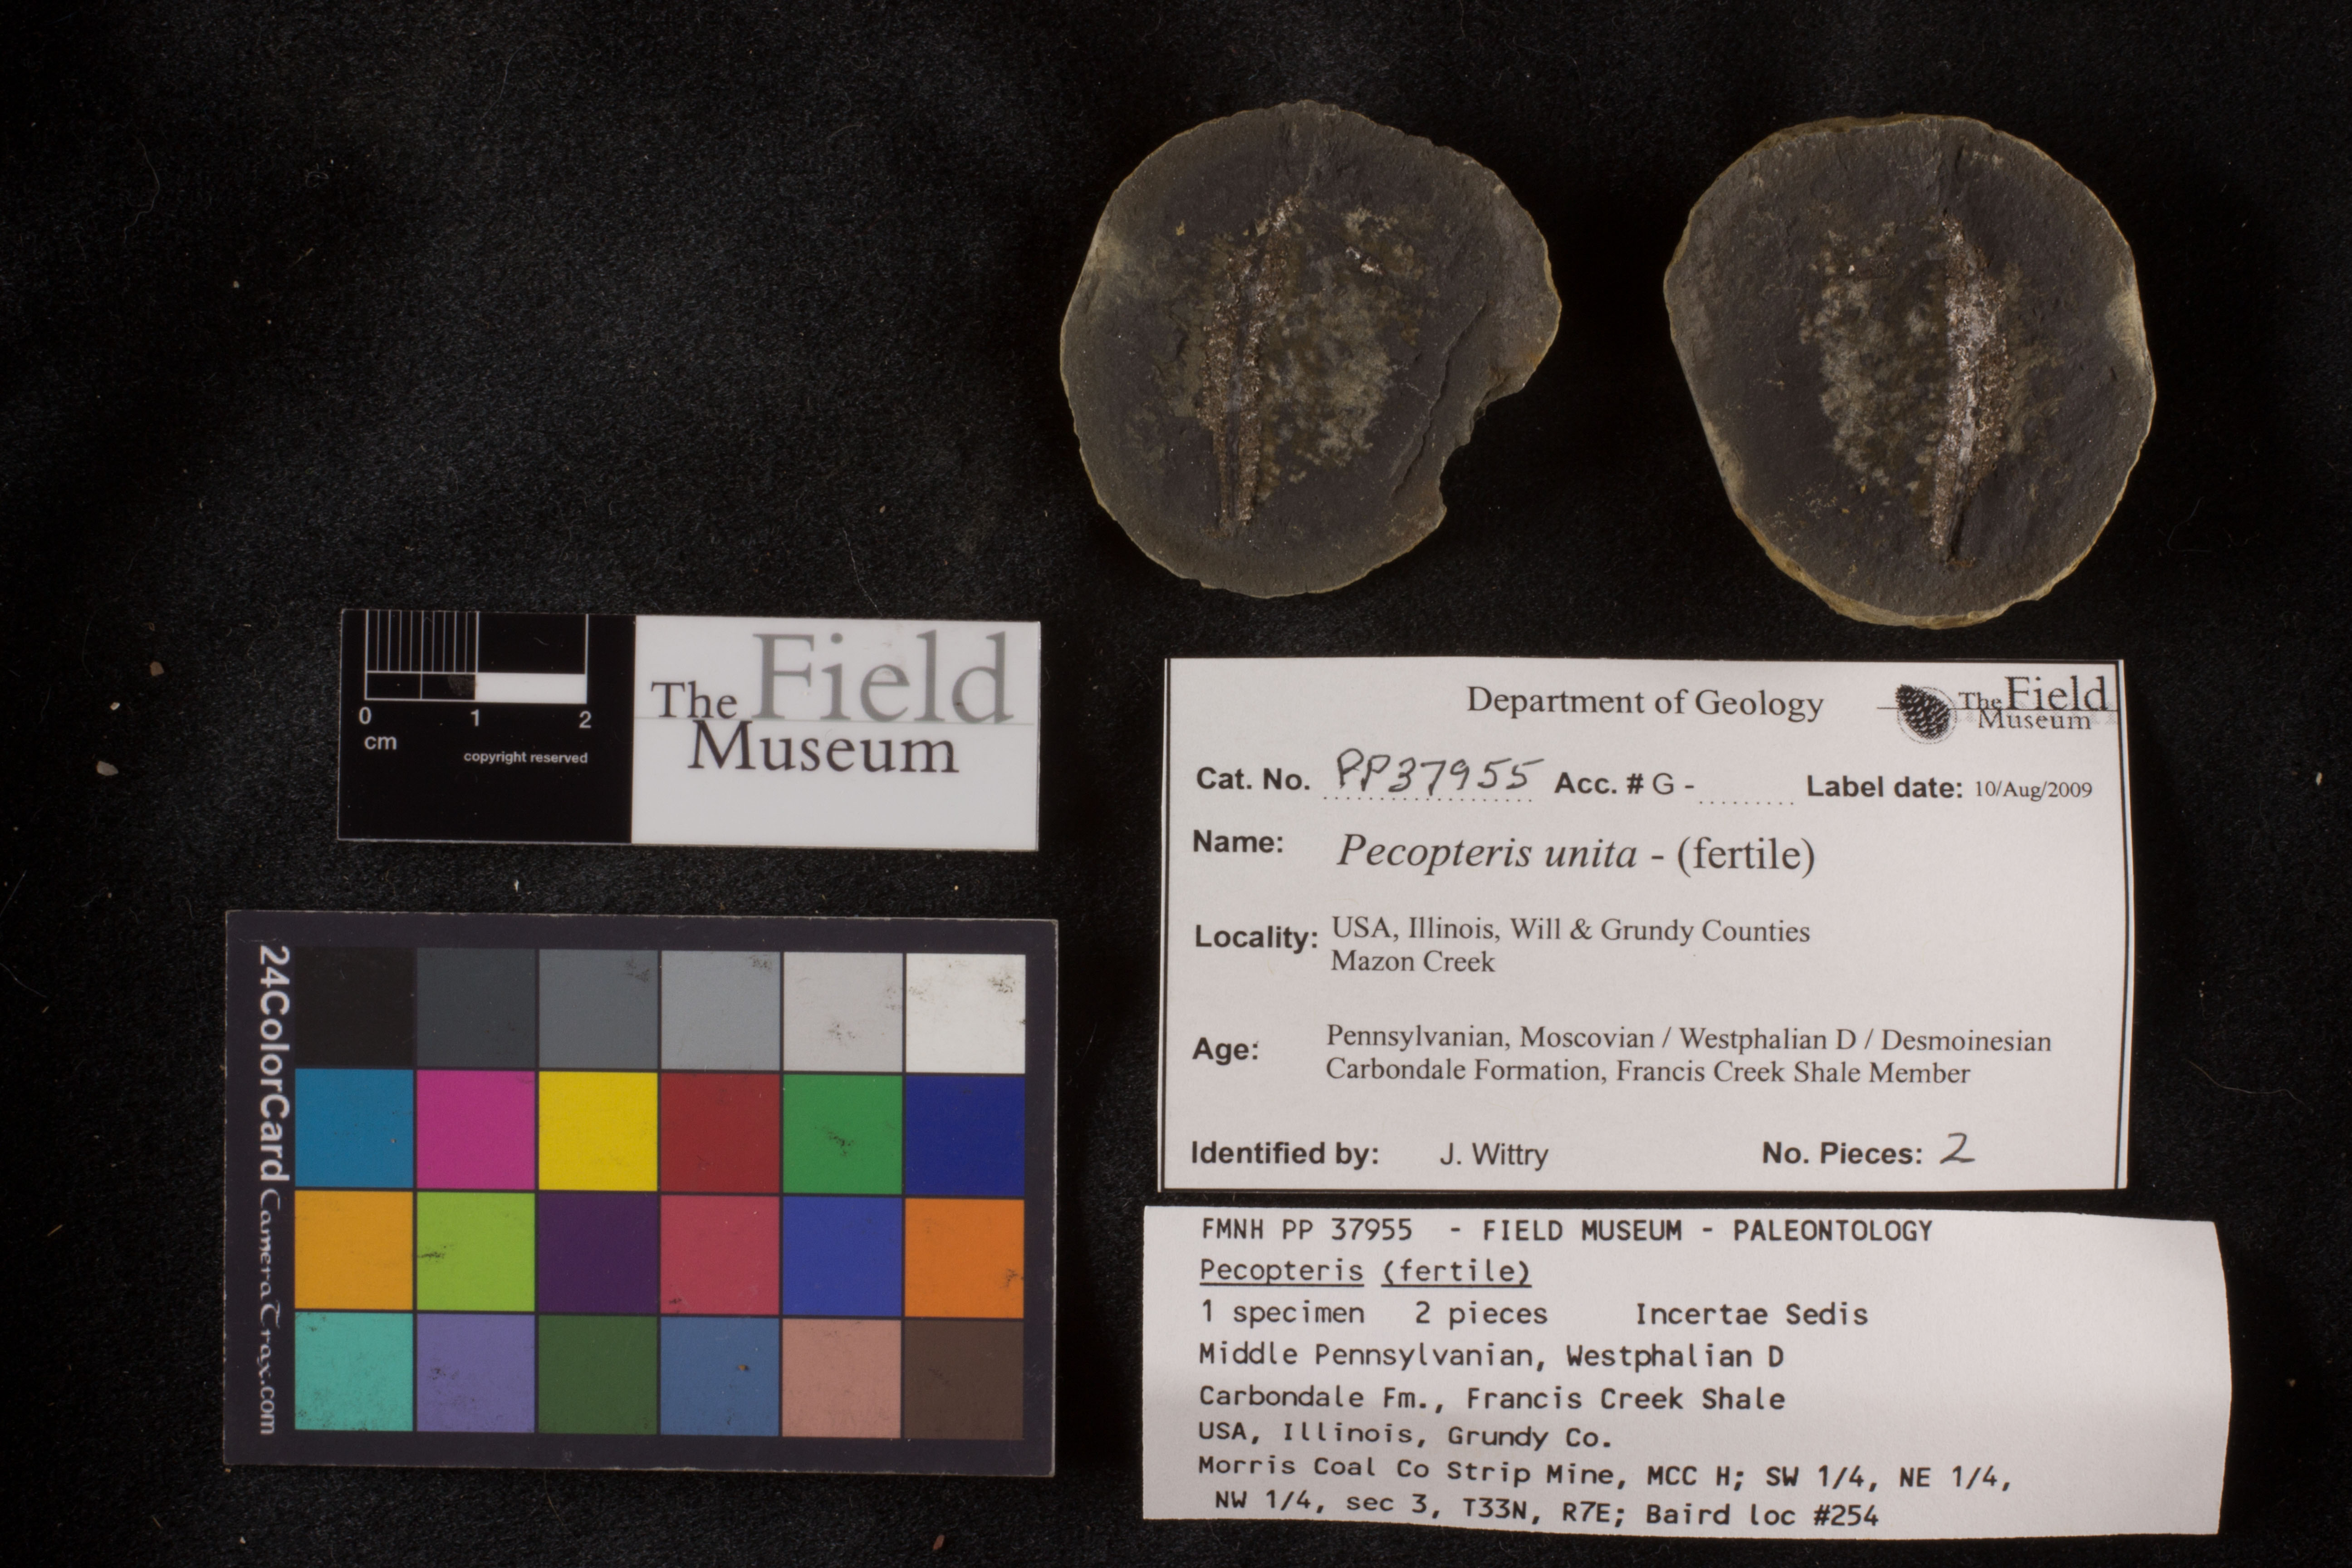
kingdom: Plantae
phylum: Tracheophyta
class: Polypodiopsida
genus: Diplazites
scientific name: Diplazites
